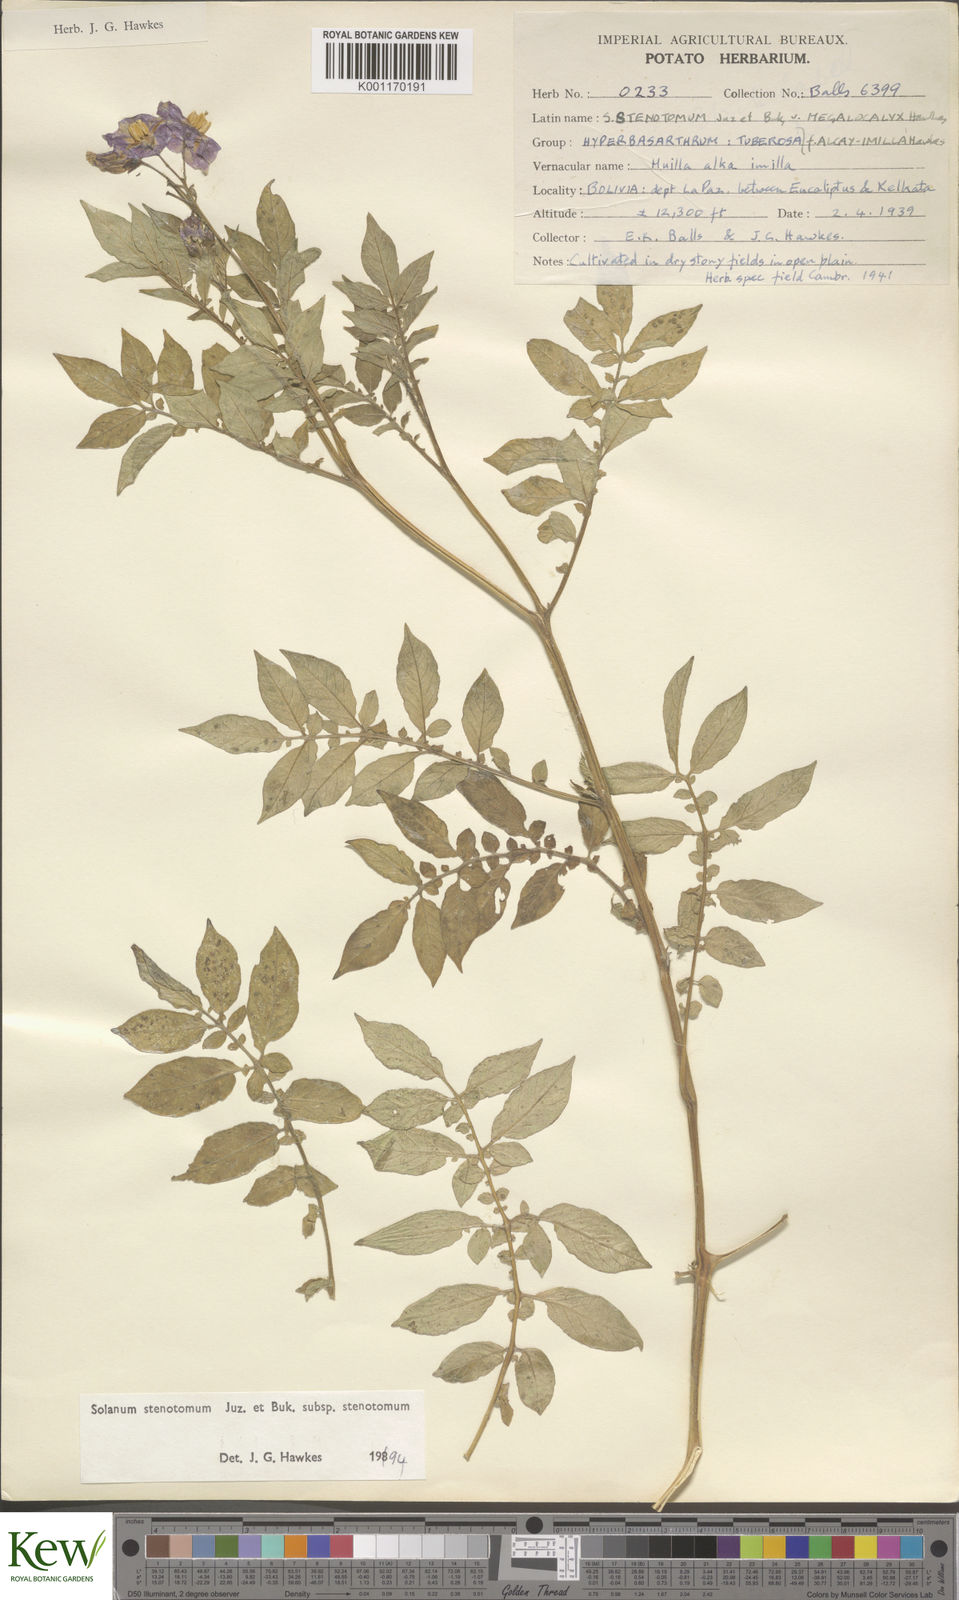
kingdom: Plantae
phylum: Tracheophyta
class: Magnoliopsida
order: Solanales
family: Solanaceae
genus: Solanum
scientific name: Solanum tuberosum
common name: Potato
